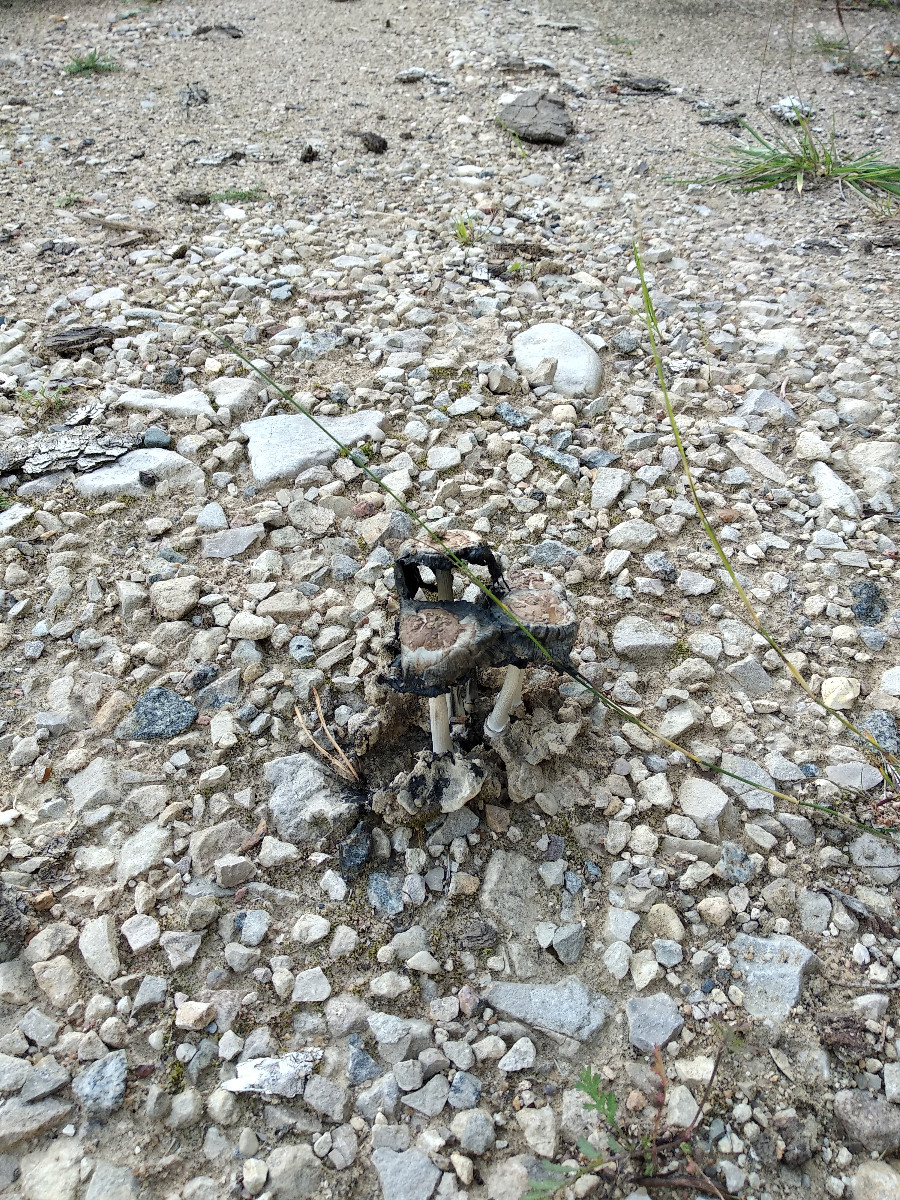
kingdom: Fungi
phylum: Basidiomycota
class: Agaricomycetes
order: Agaricales
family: Agaricaceae
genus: Coprinus
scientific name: Coprinus
